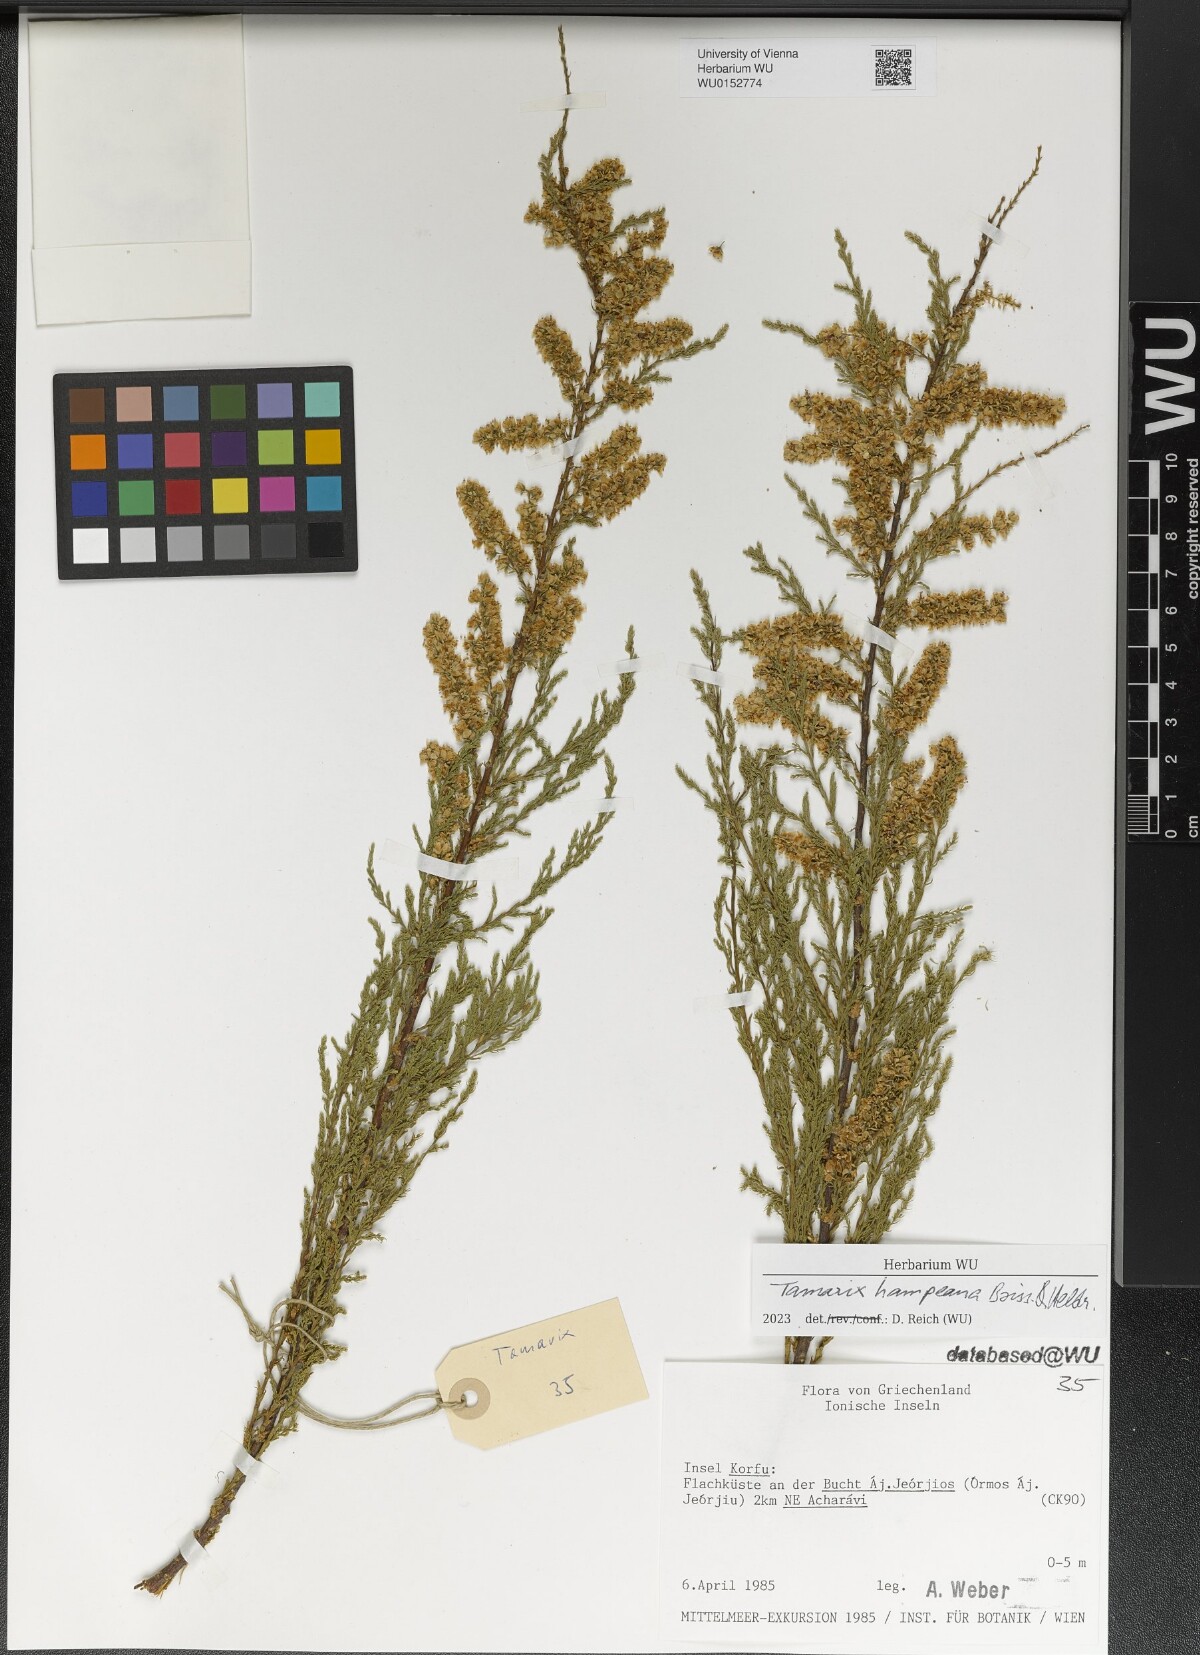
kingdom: Plantae
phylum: Tracheophyta
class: Magnoliopsida
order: Caryophyllales
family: Tamaricaceae
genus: Tamarix
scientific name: Tamarix hampeana
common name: Hampe’s tamarisk
